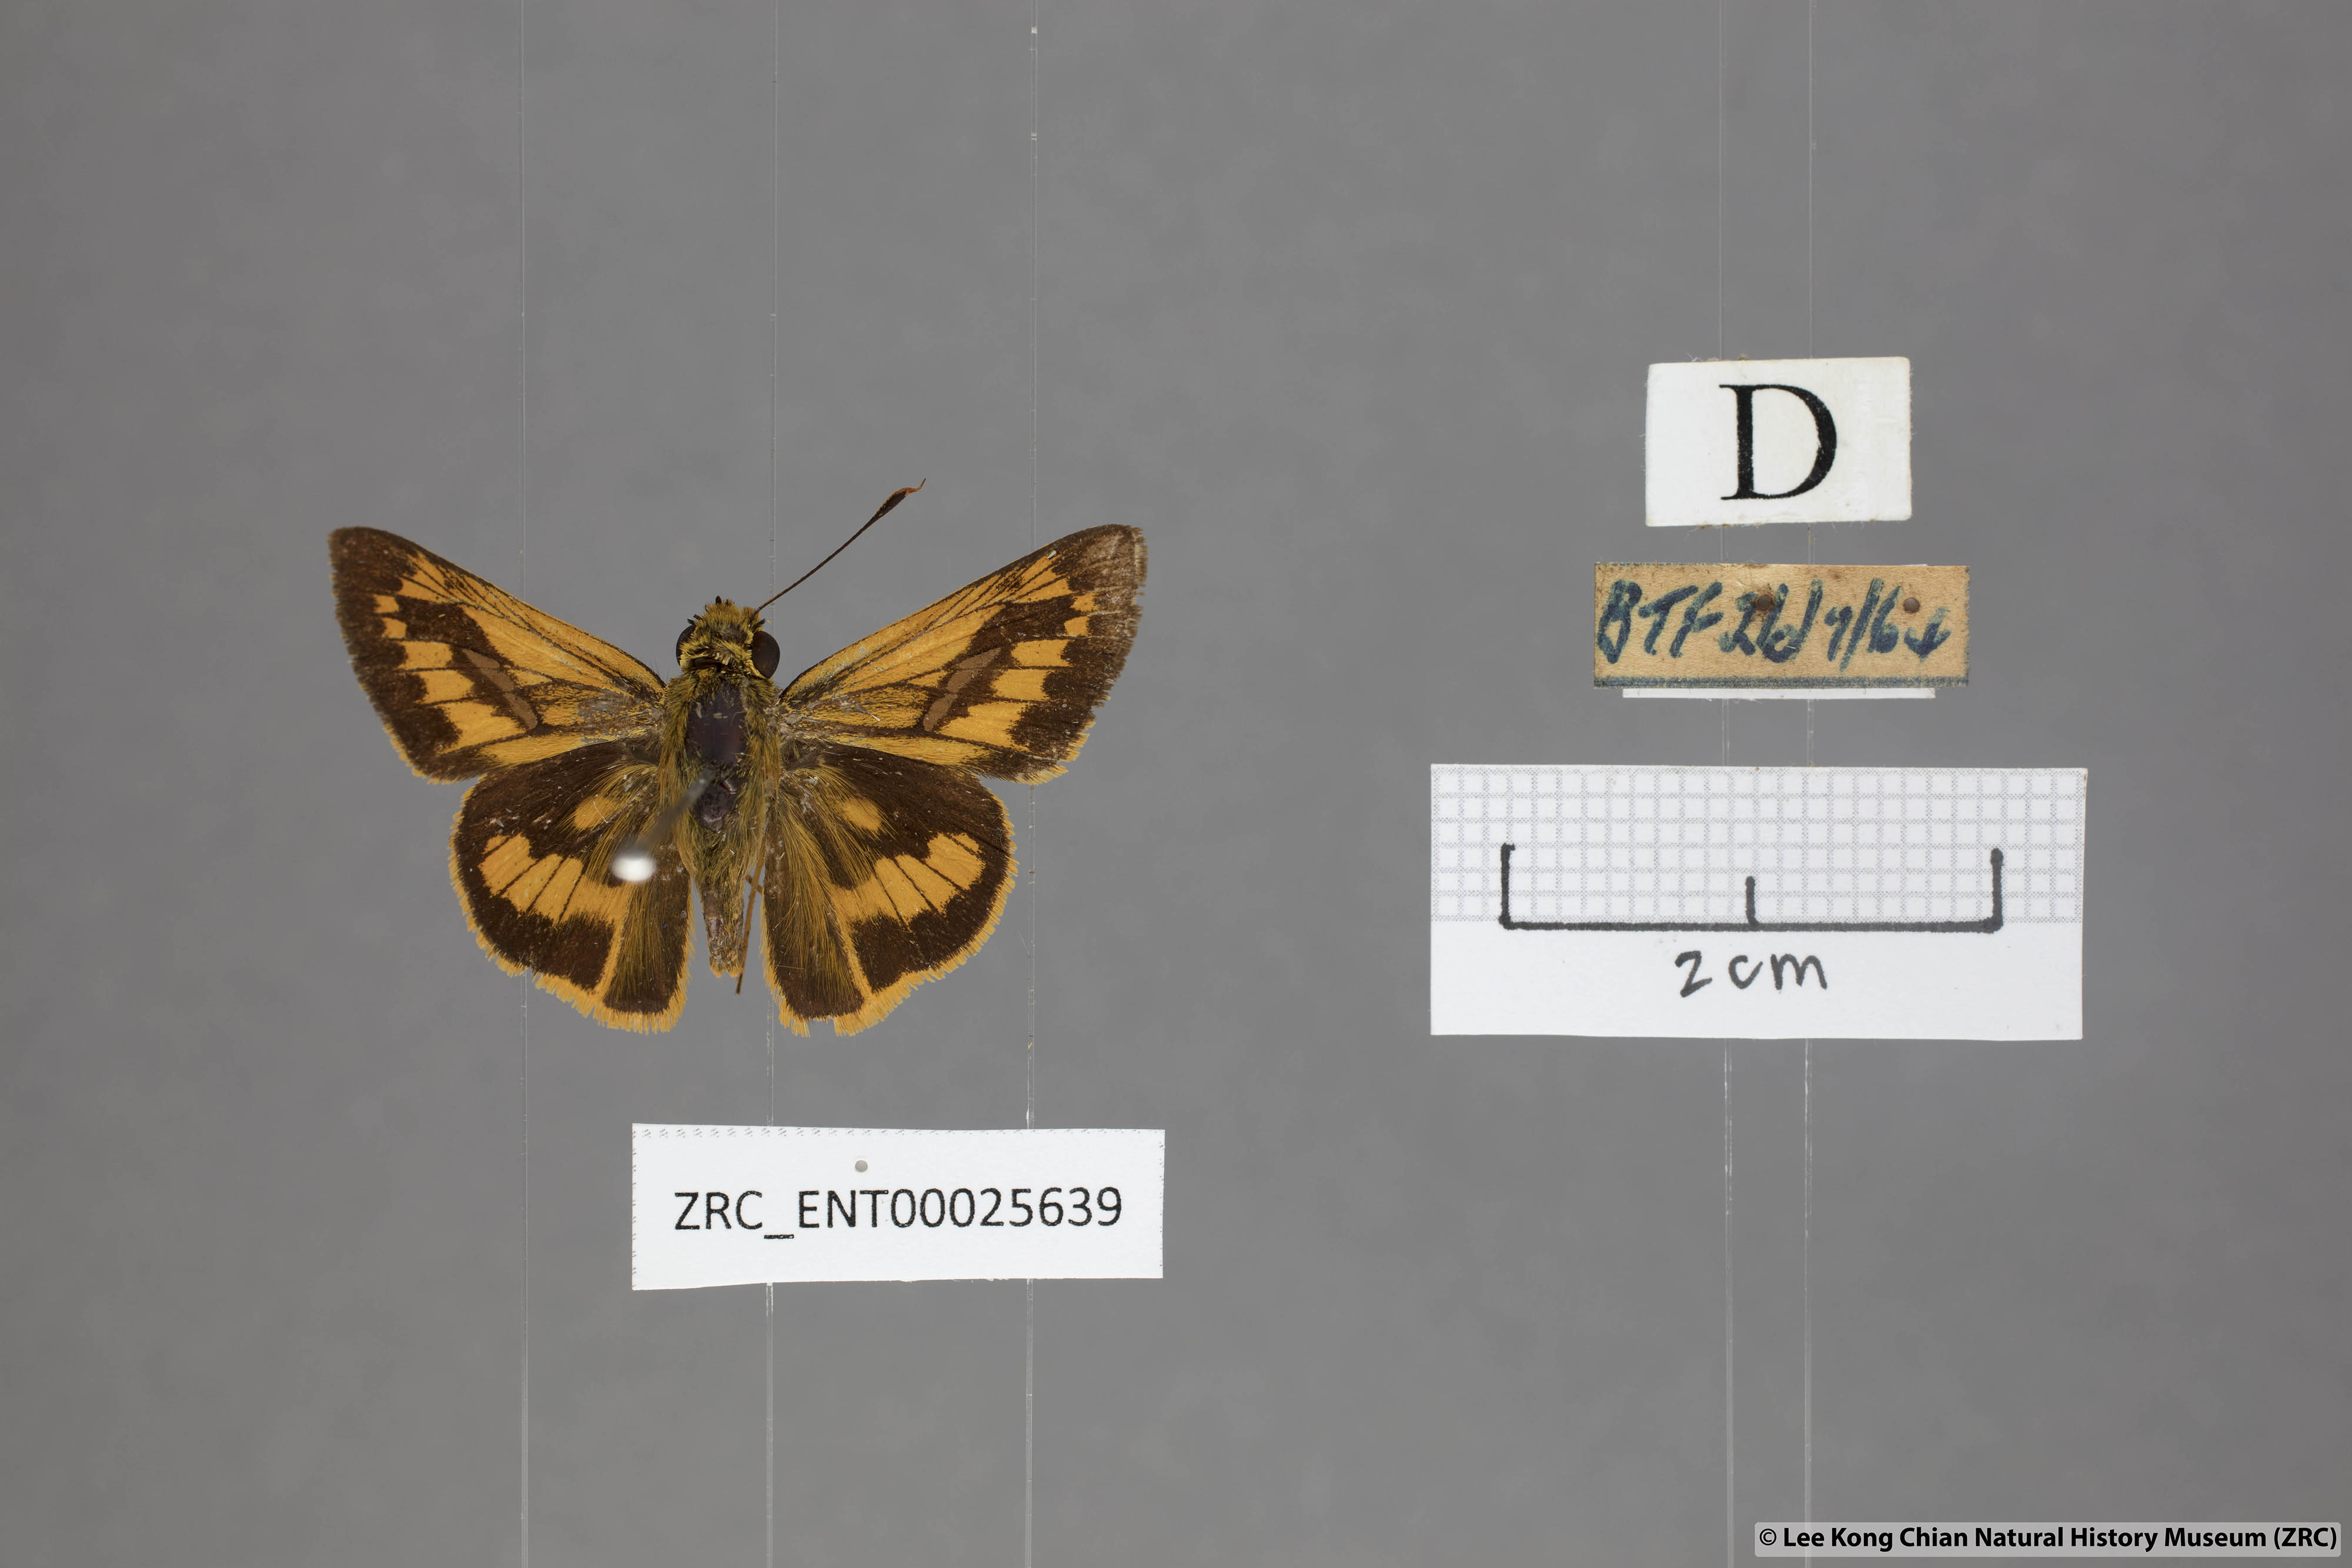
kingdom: Animalia
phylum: Arthropoda
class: Insecta
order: Lepidoptera
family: Hesperiidae
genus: Telicota
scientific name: Telicota besta
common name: Hainan palm dart
